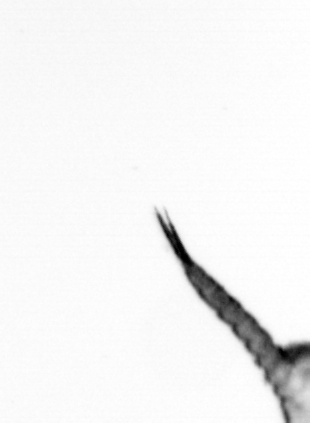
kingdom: Animalia
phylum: Arthropoda
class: Copepoda
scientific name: Copepoda
